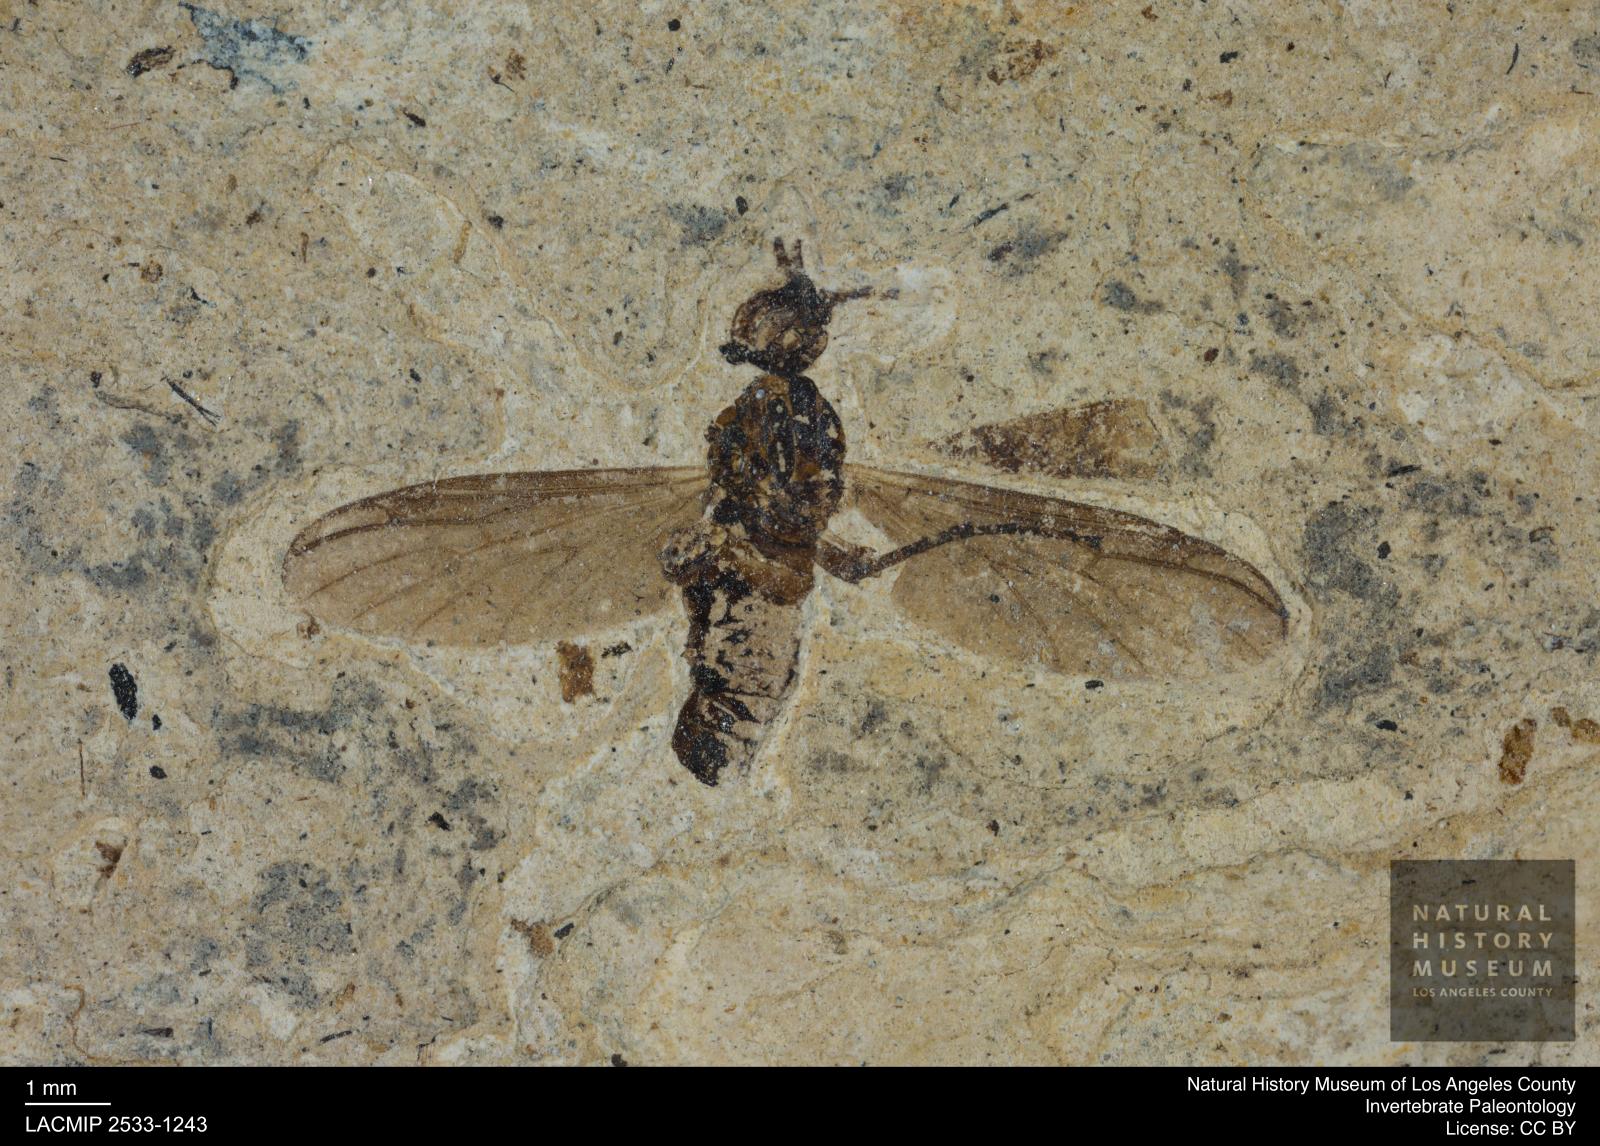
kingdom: Animalia
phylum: Arthropoda
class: Insecta
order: Diptera
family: Bibionidae
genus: Plecia
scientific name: Plecia
